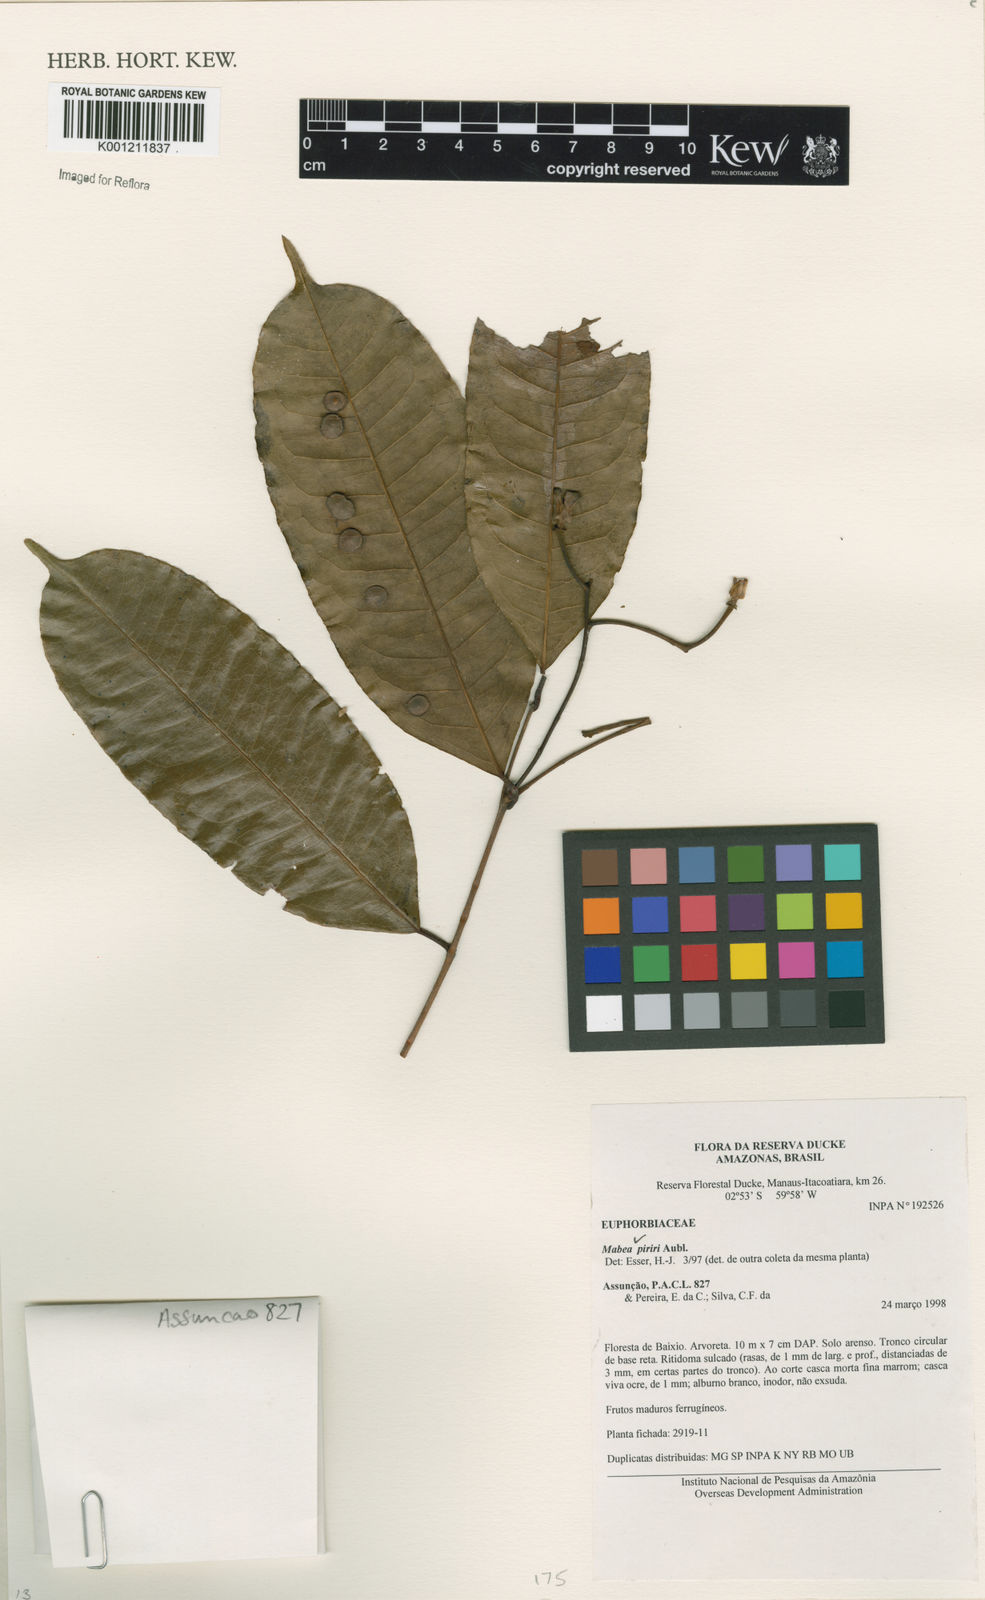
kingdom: Plantae
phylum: Tracheophyta
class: Magnoliopsida
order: Malpighiales
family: Euphorbiaceae
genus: Mabea
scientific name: Mabea piriri
